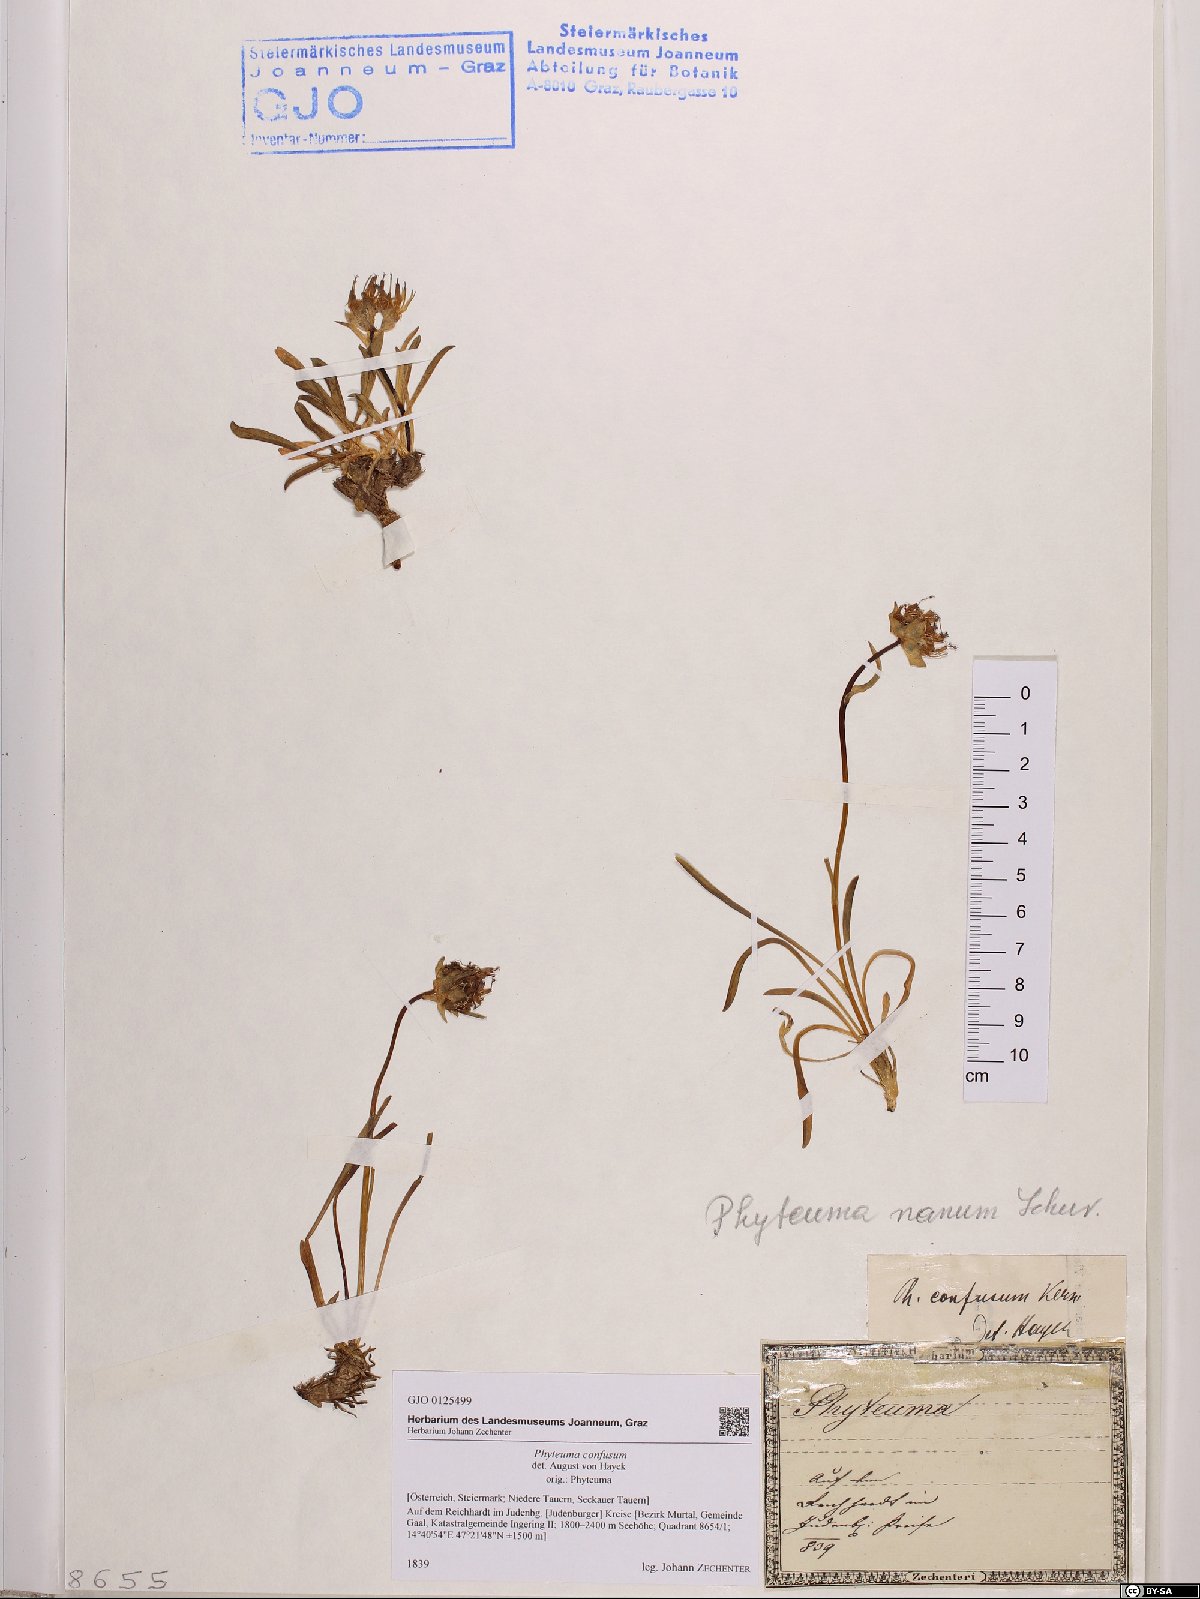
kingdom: Plantae
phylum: Tracheophyta
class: Magnoliopsida
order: Asterales
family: Campanulaceae
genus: Phyteuma
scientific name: Phyteuma confusum
